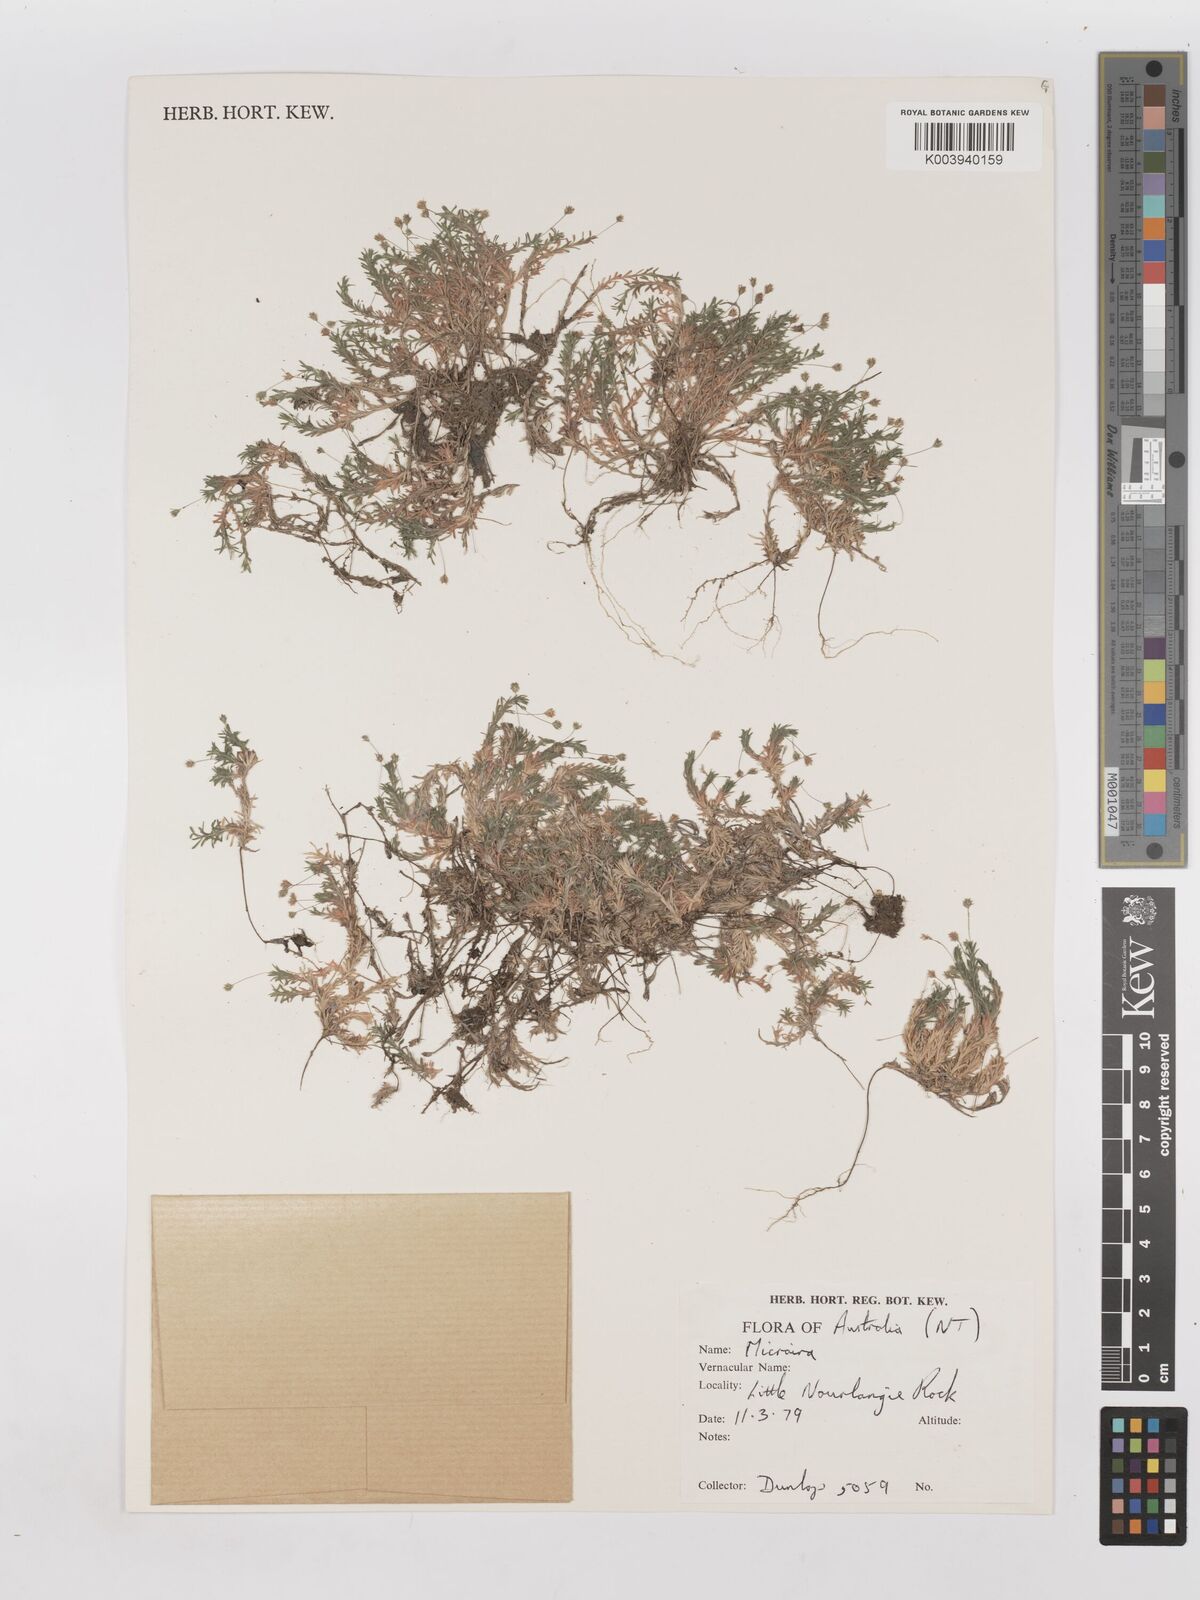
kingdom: Plantae
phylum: Tracheophyta
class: Liliopsida
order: Poales
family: Poaceae
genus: Micraira
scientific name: Micraira subspicata
